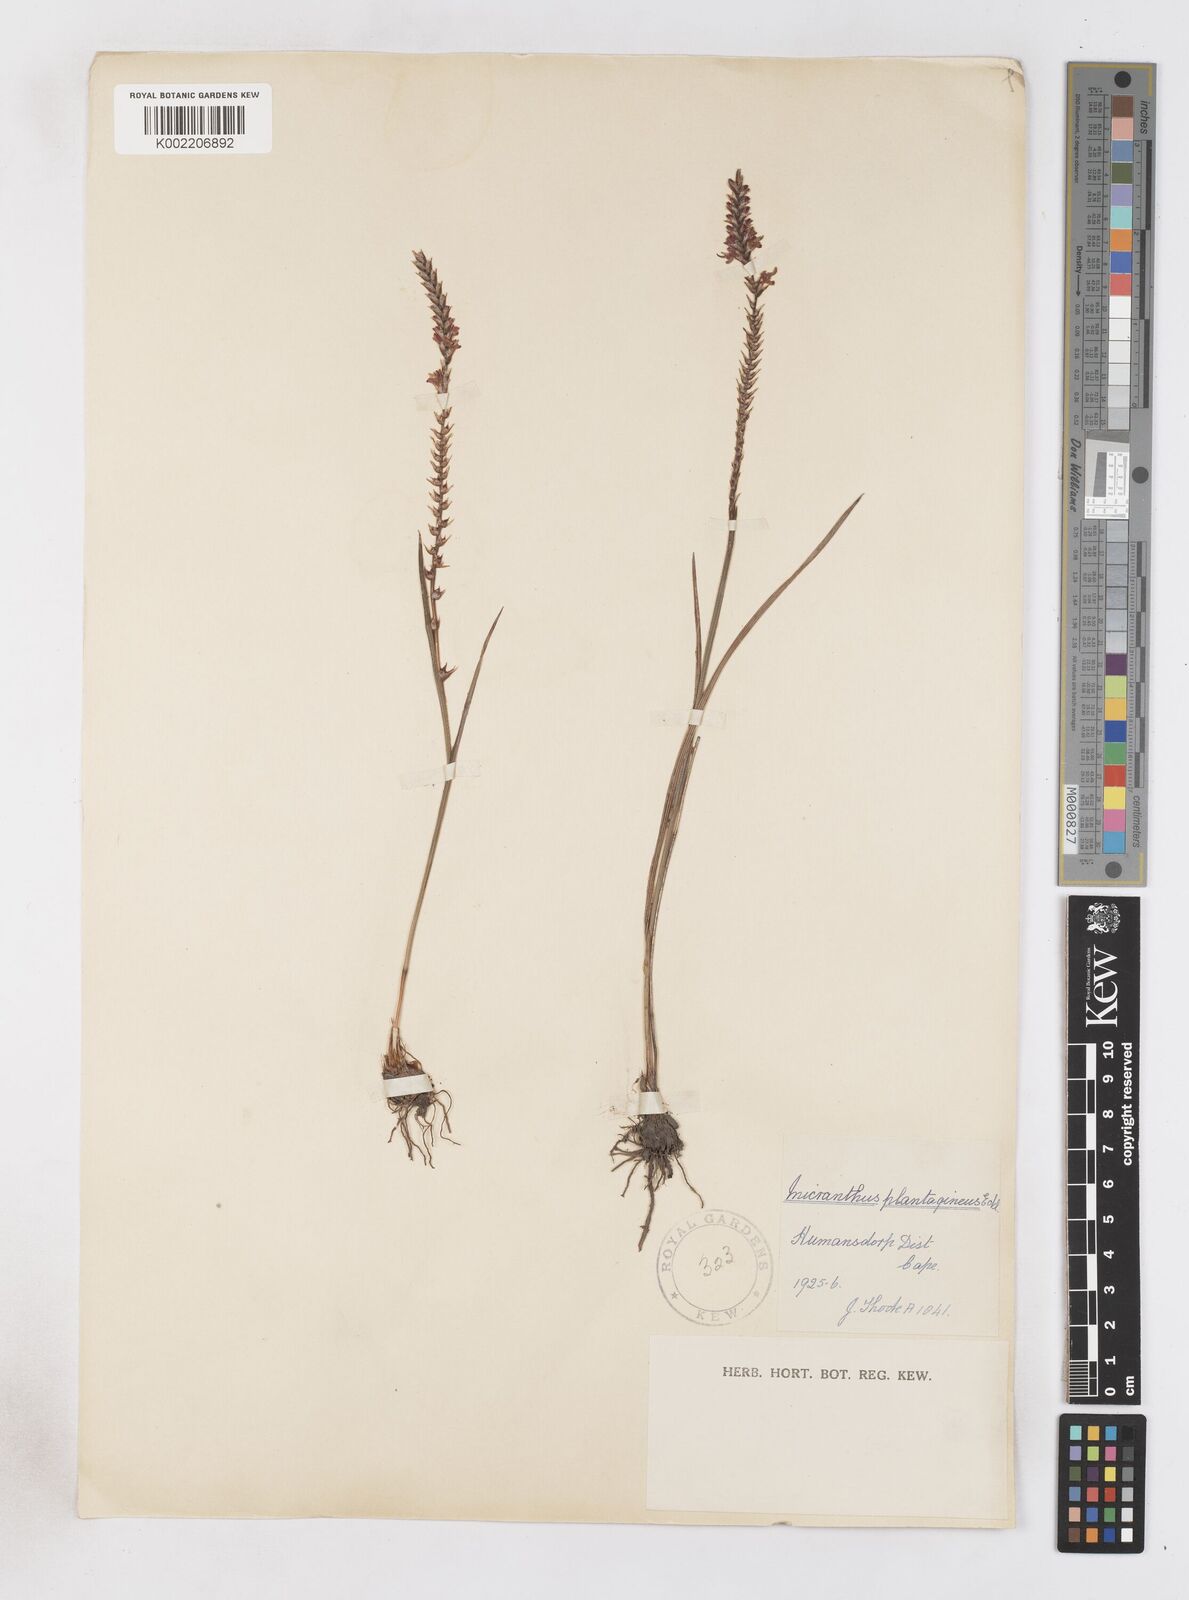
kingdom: Plantae
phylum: Tracheophyta
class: Liliopsida
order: Asparagales
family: Iridaceae
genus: Micranthus
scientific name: Micranthus plantagineus
